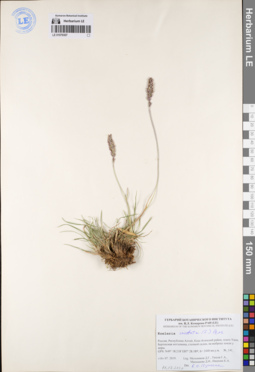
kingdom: Plantae
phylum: Tracheophyta
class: Liliopsida
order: Poales
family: Poaceae
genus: Koeleria
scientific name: Koeleria pyramidata
